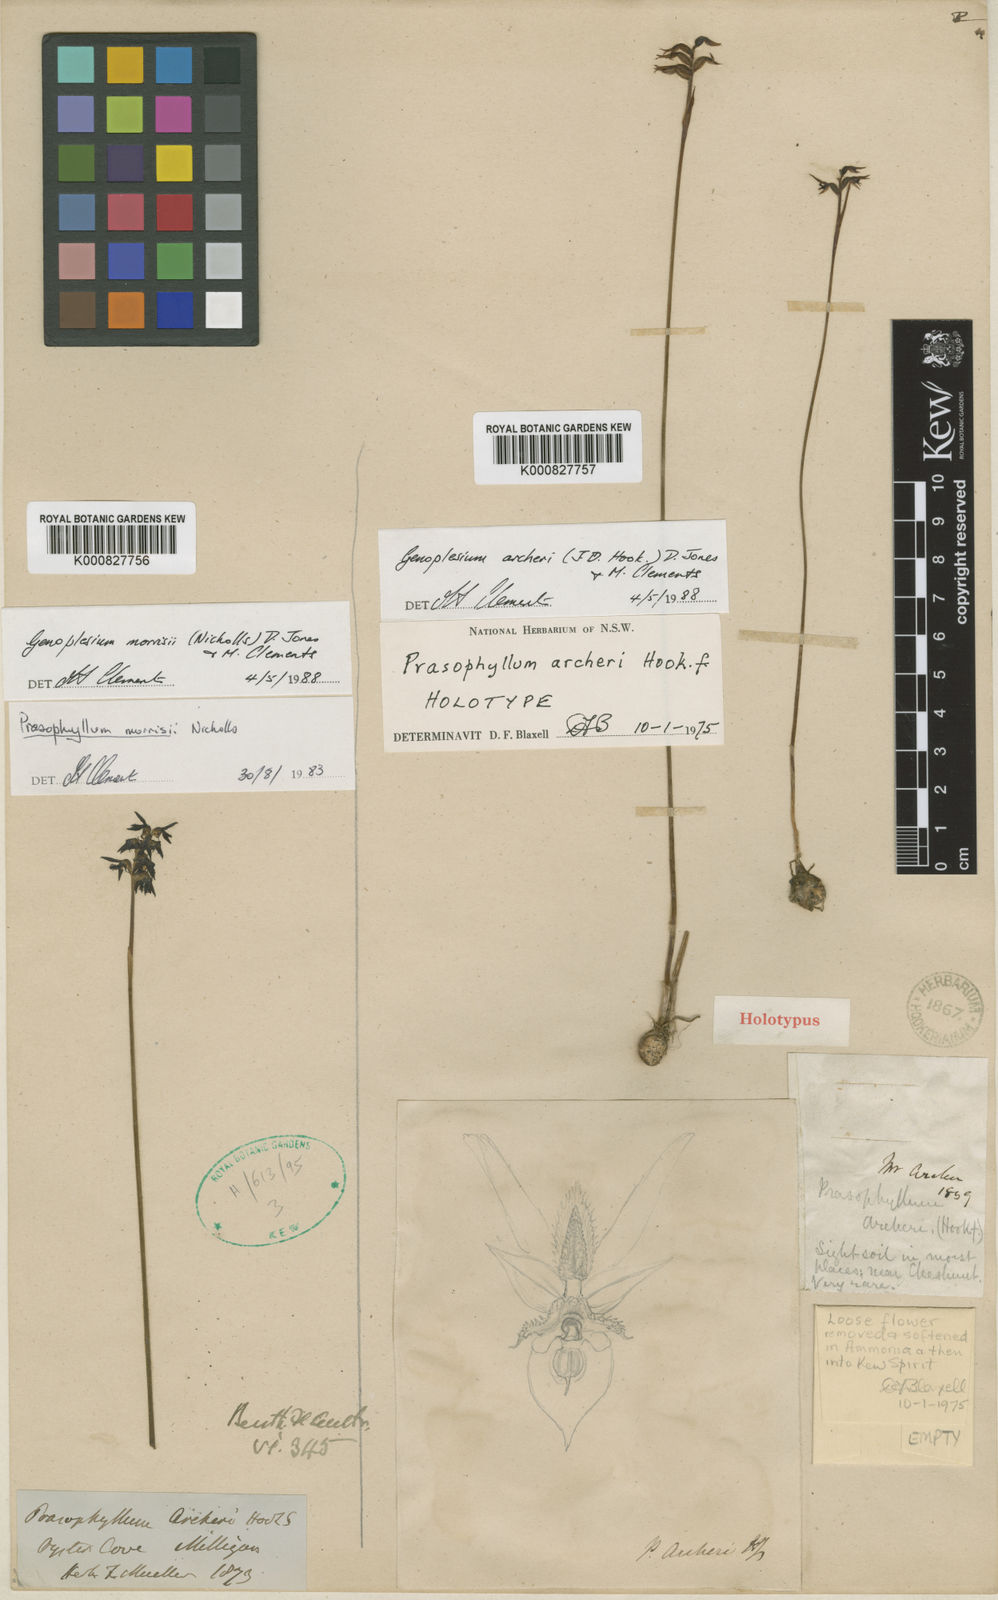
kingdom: Plantae
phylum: Tracheophyta
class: Liliopsida
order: Asparagales
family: Orchidaceae
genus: Genoplesium
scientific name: Genoplesium archeri
